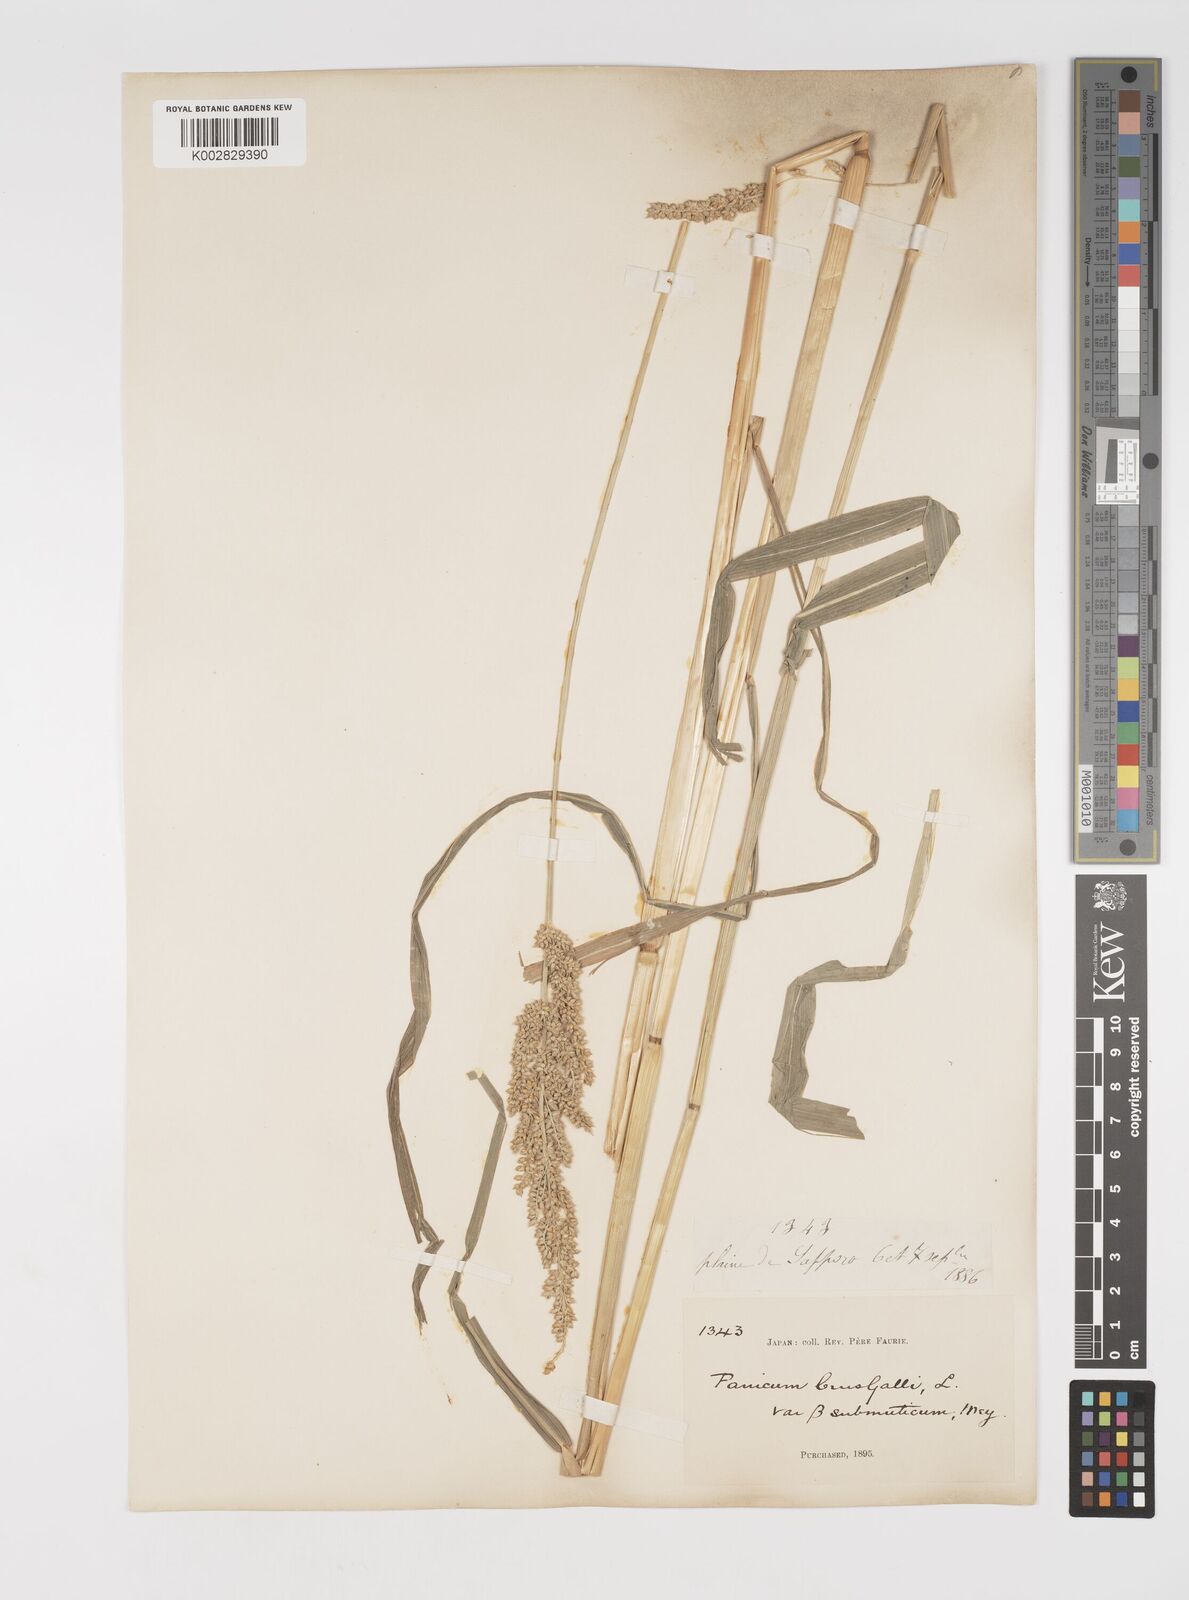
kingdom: Plantae
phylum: Tracheophyta
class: Liliopsida
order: Poales
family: Poaceae
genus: Echinochloa
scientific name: Echinochloa crus-galli
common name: Cockspur
